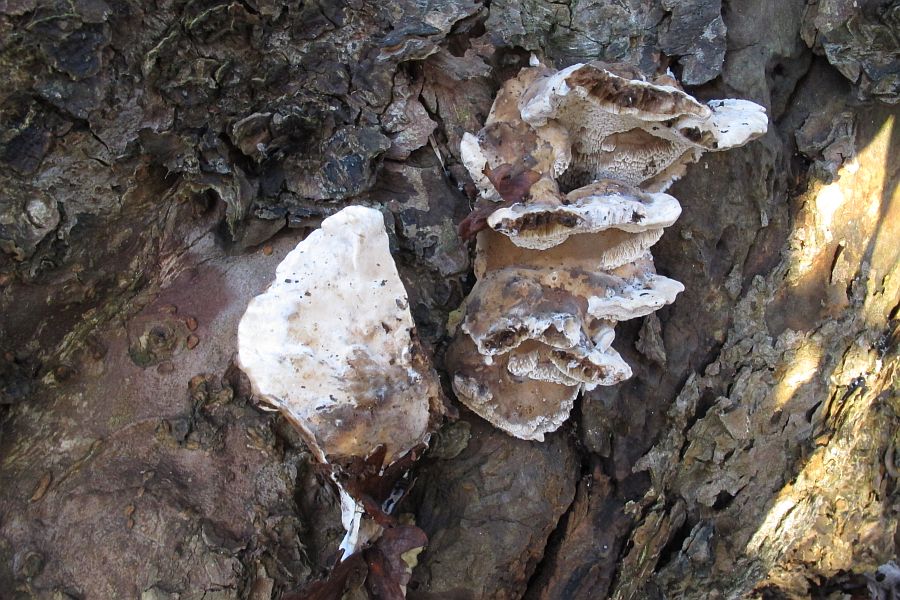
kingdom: Fungi
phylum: Basidiomycota
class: Agaricomycetes
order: Polyporales
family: Phanerochaetaceae
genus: Bjerkandera
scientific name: Bjerkandera fumosa
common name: grågul sodporesvamp
